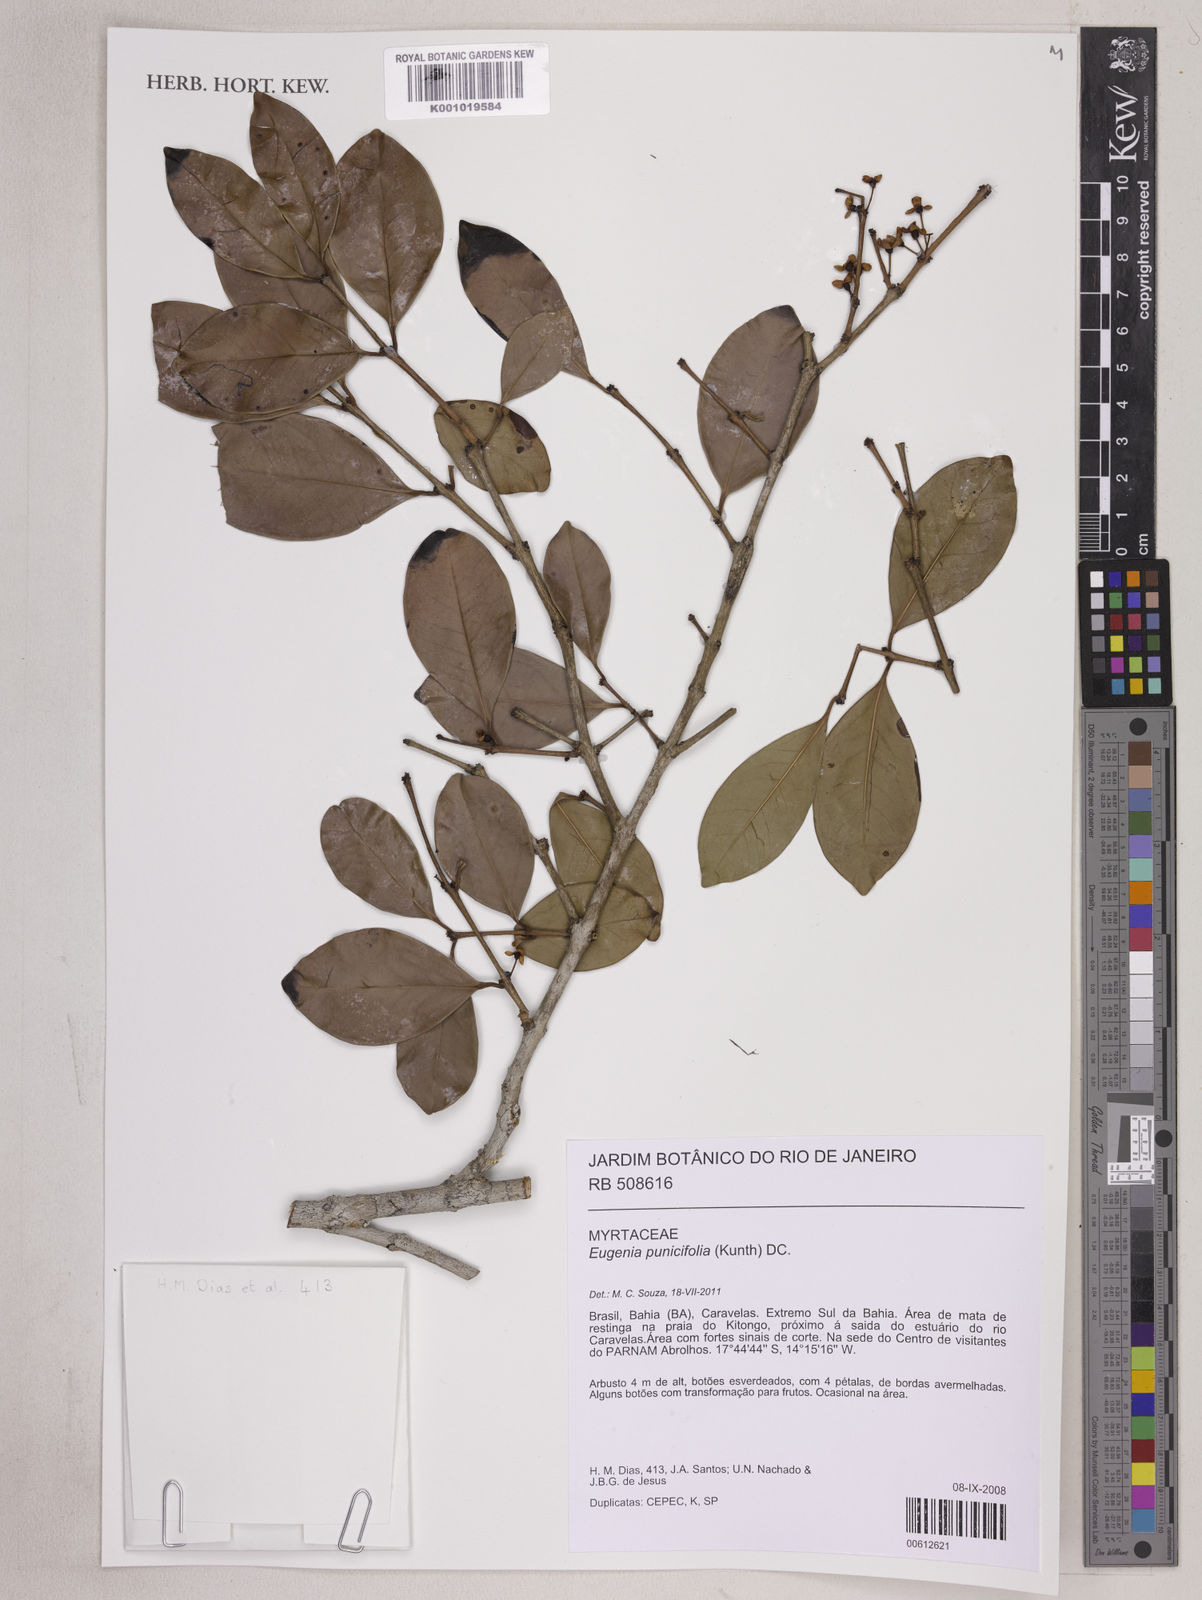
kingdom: Plantae
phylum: Tracheophyta
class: Magnoliopsida
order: Myrtales
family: Myrtaceae
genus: Eugenia
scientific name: Eugenia punicifolia
